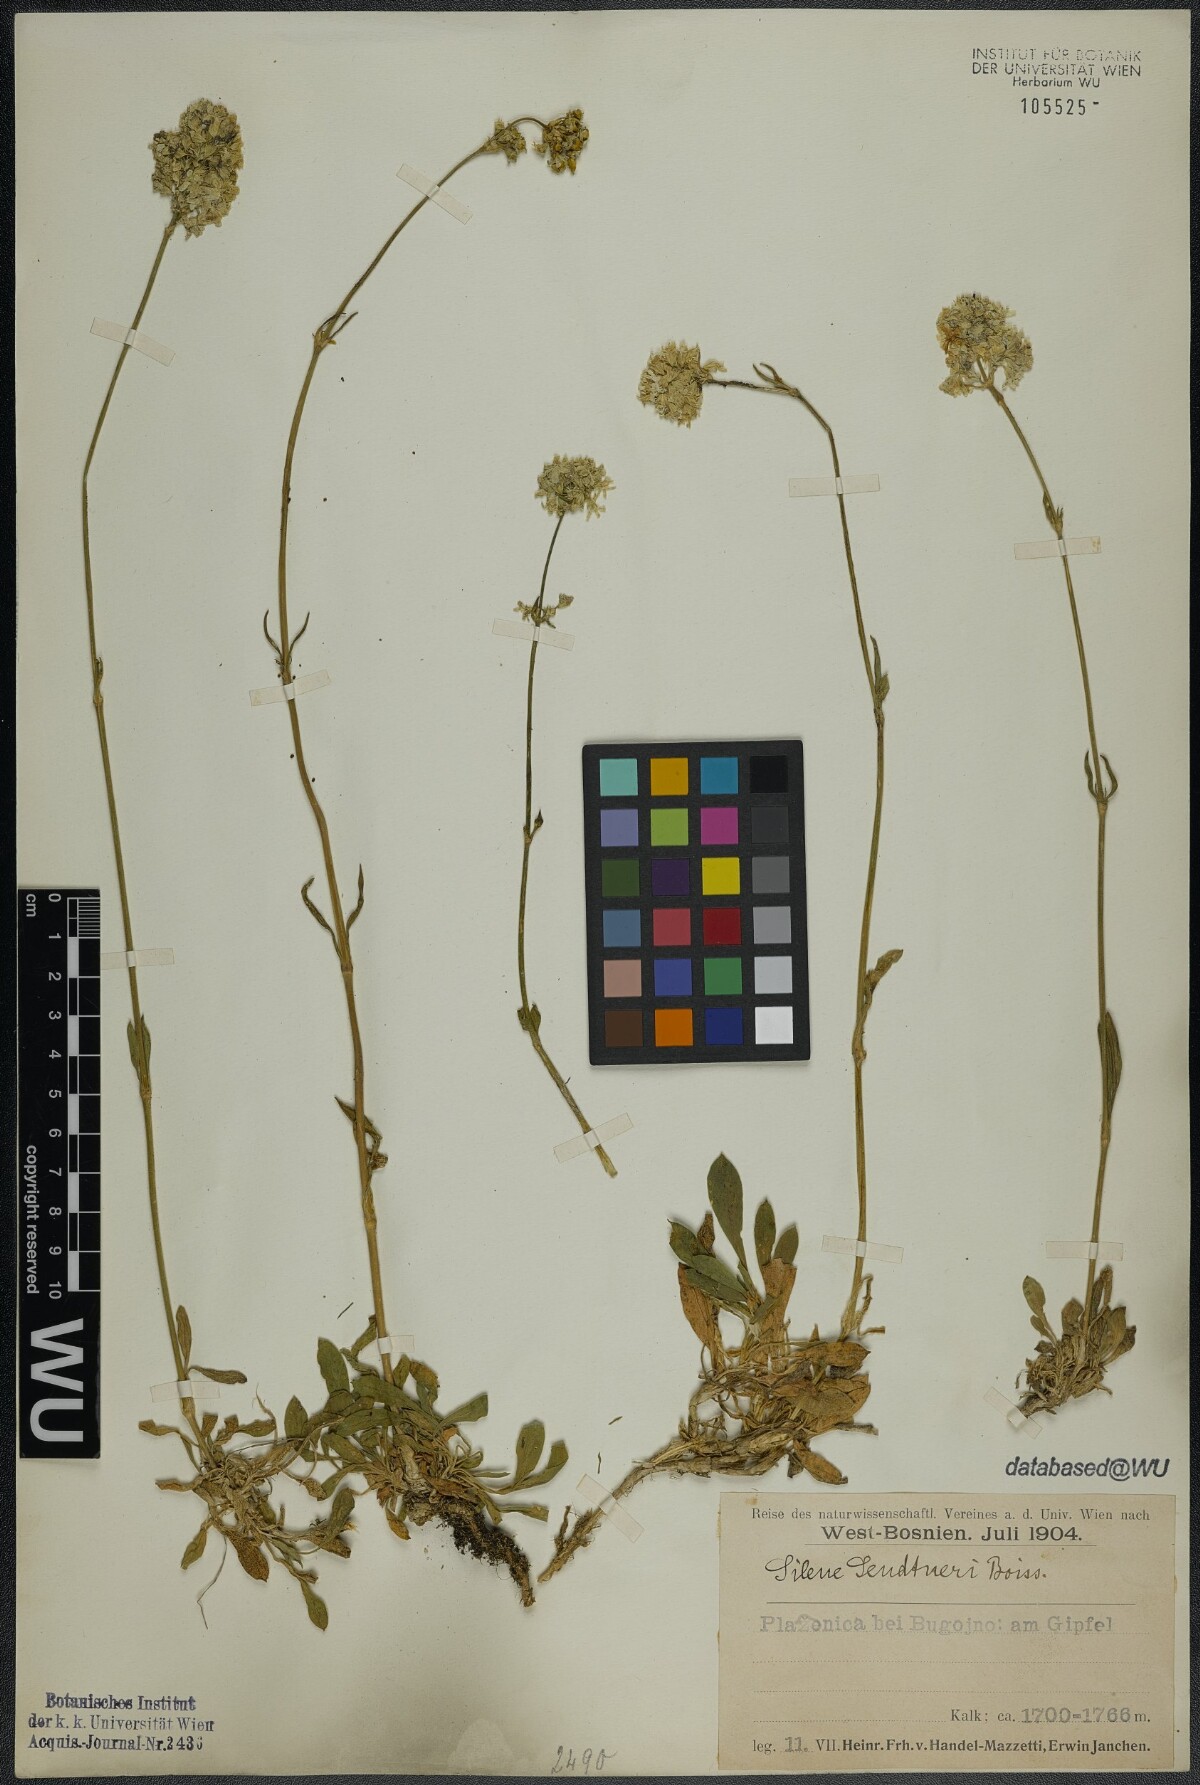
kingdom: Plantae
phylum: Tracheophyta
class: Magnoliopsida
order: Caryophyllales
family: Caryophyllaceae
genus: Silene
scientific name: Silene sendtneri
